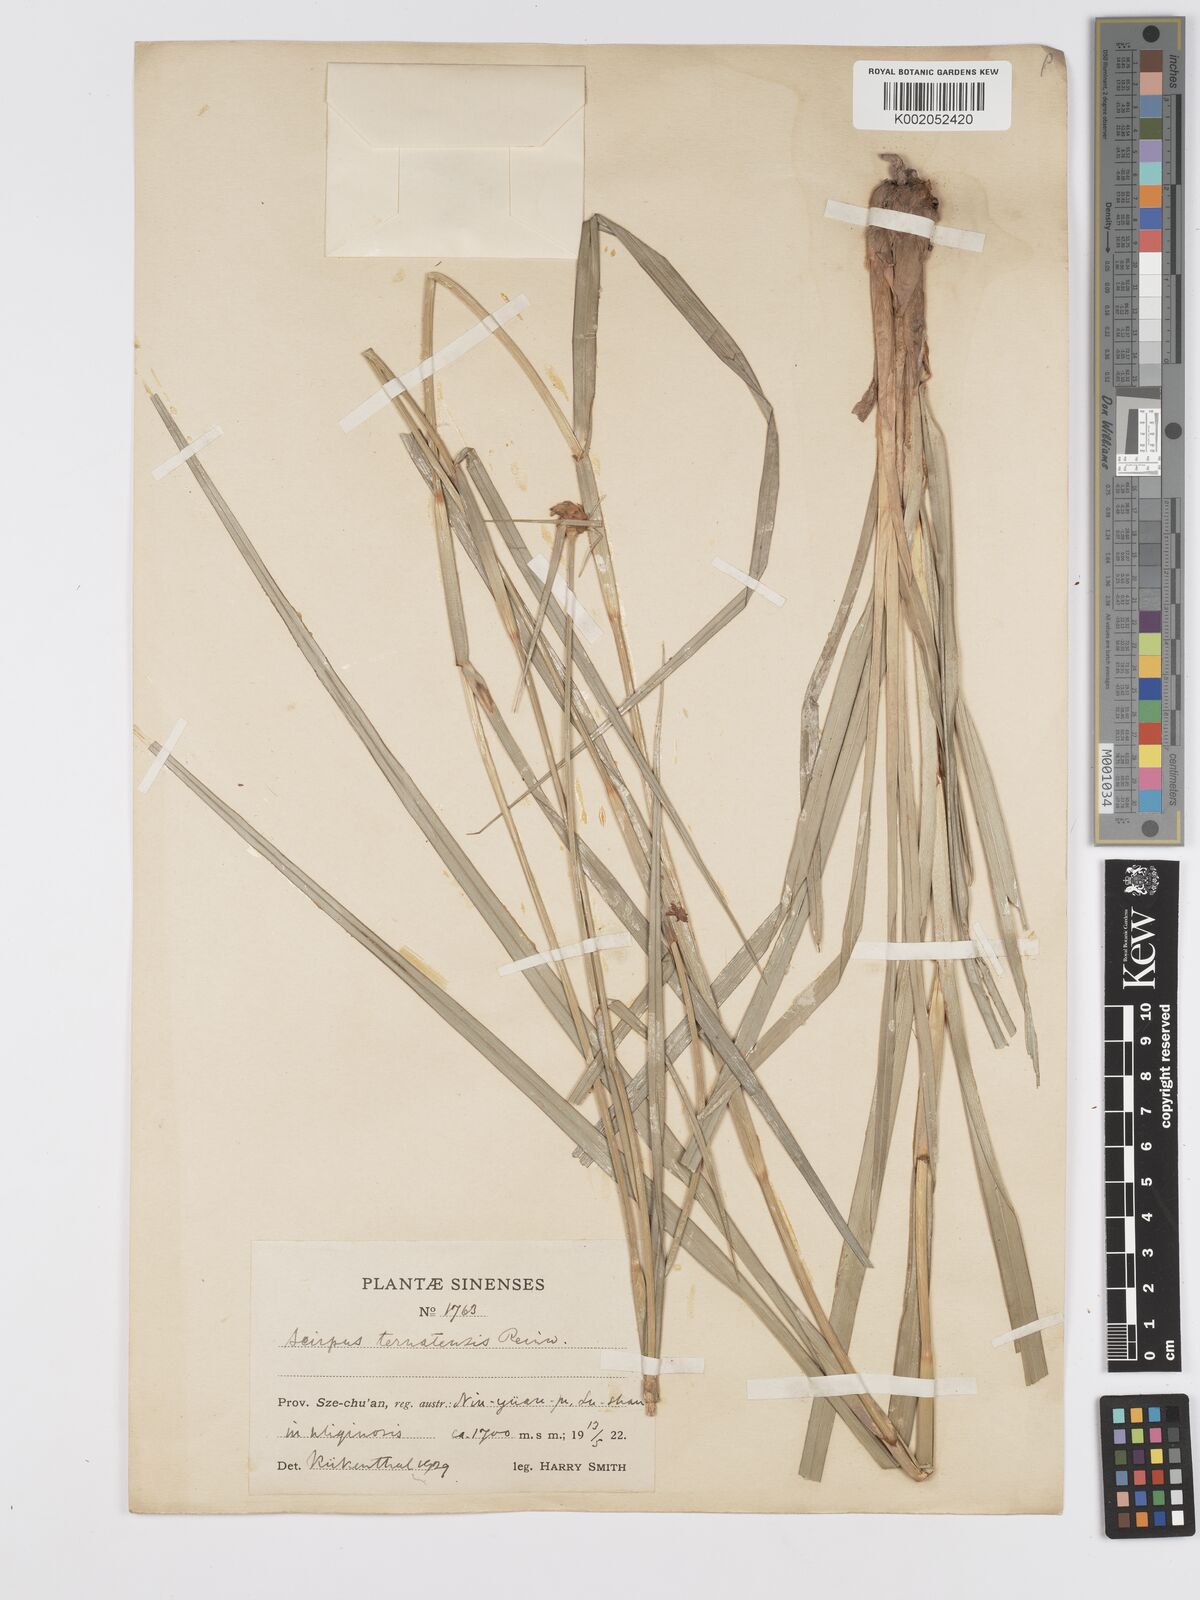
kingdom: Plantae
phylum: Tracheophyta
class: Liliopsida
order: Poales
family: Cyperaceae
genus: Scirpus
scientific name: Scirpus ternatanus
